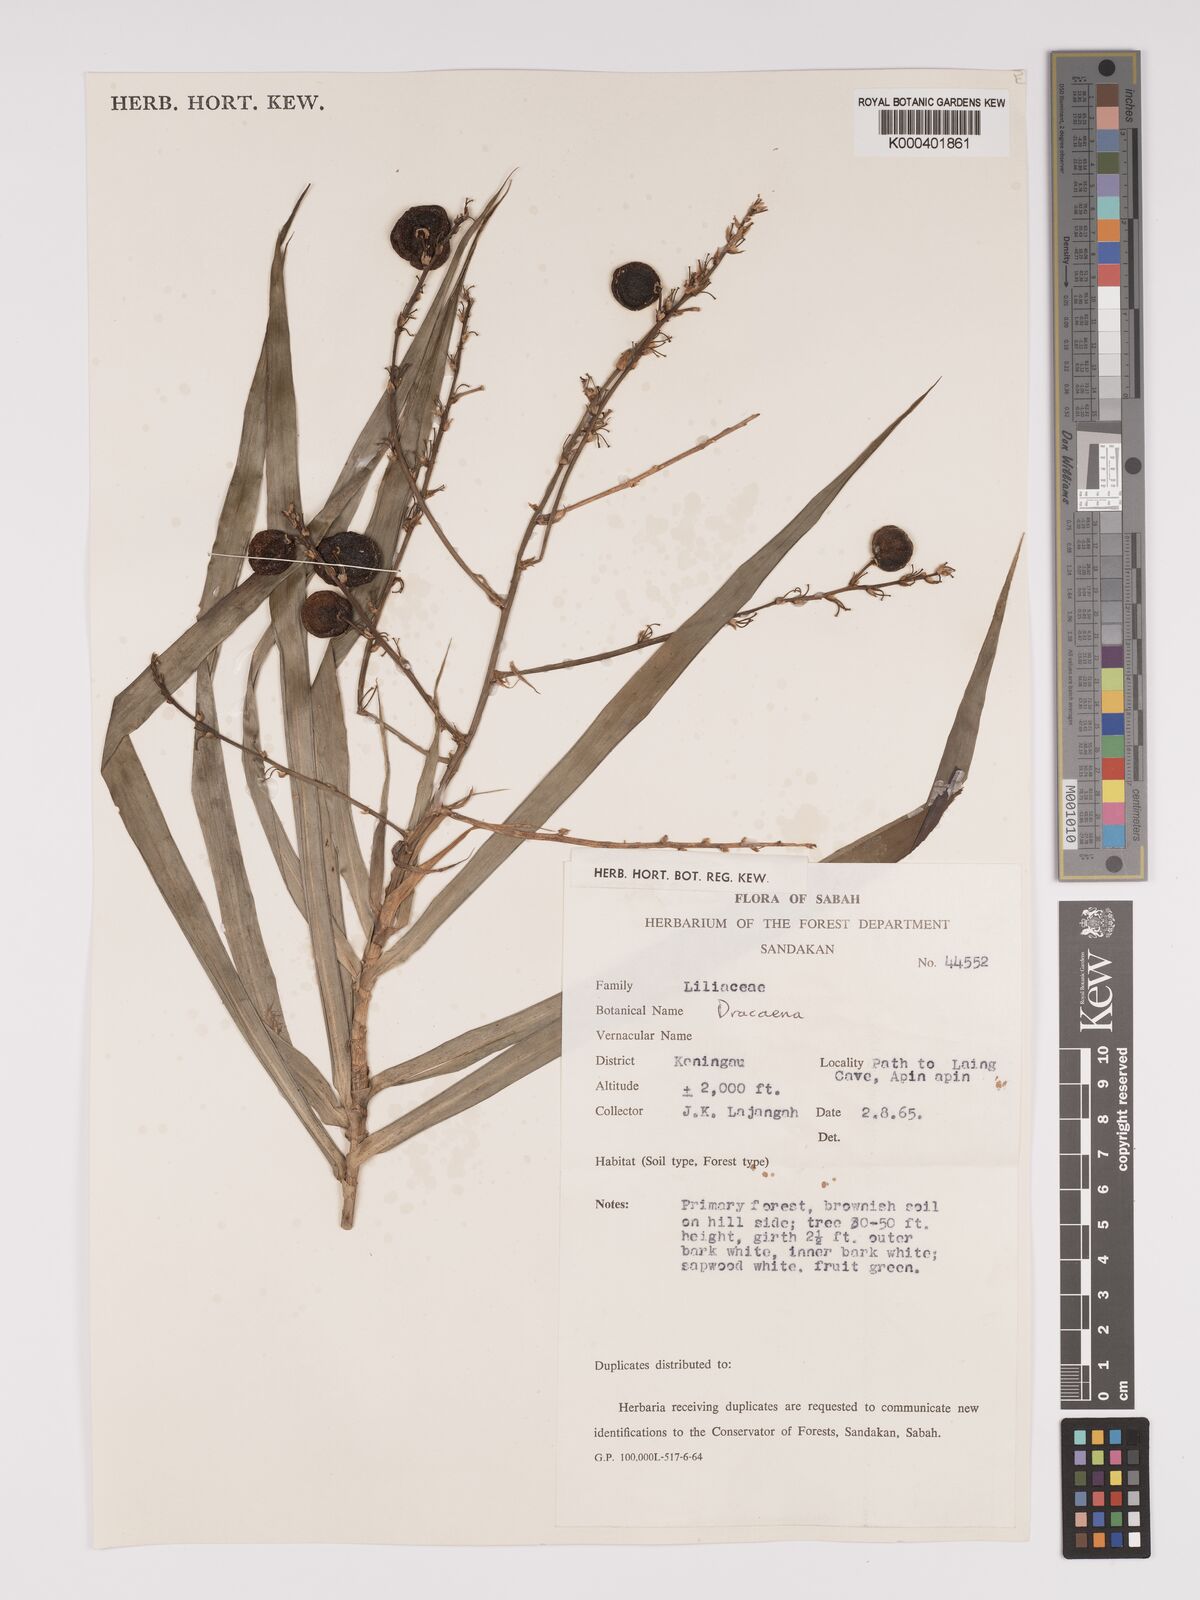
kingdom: Plantae
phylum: Tracheophyta
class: Liliopsida
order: Asparagales
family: Asparagaceae
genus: Dracaena
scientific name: Dracaena
